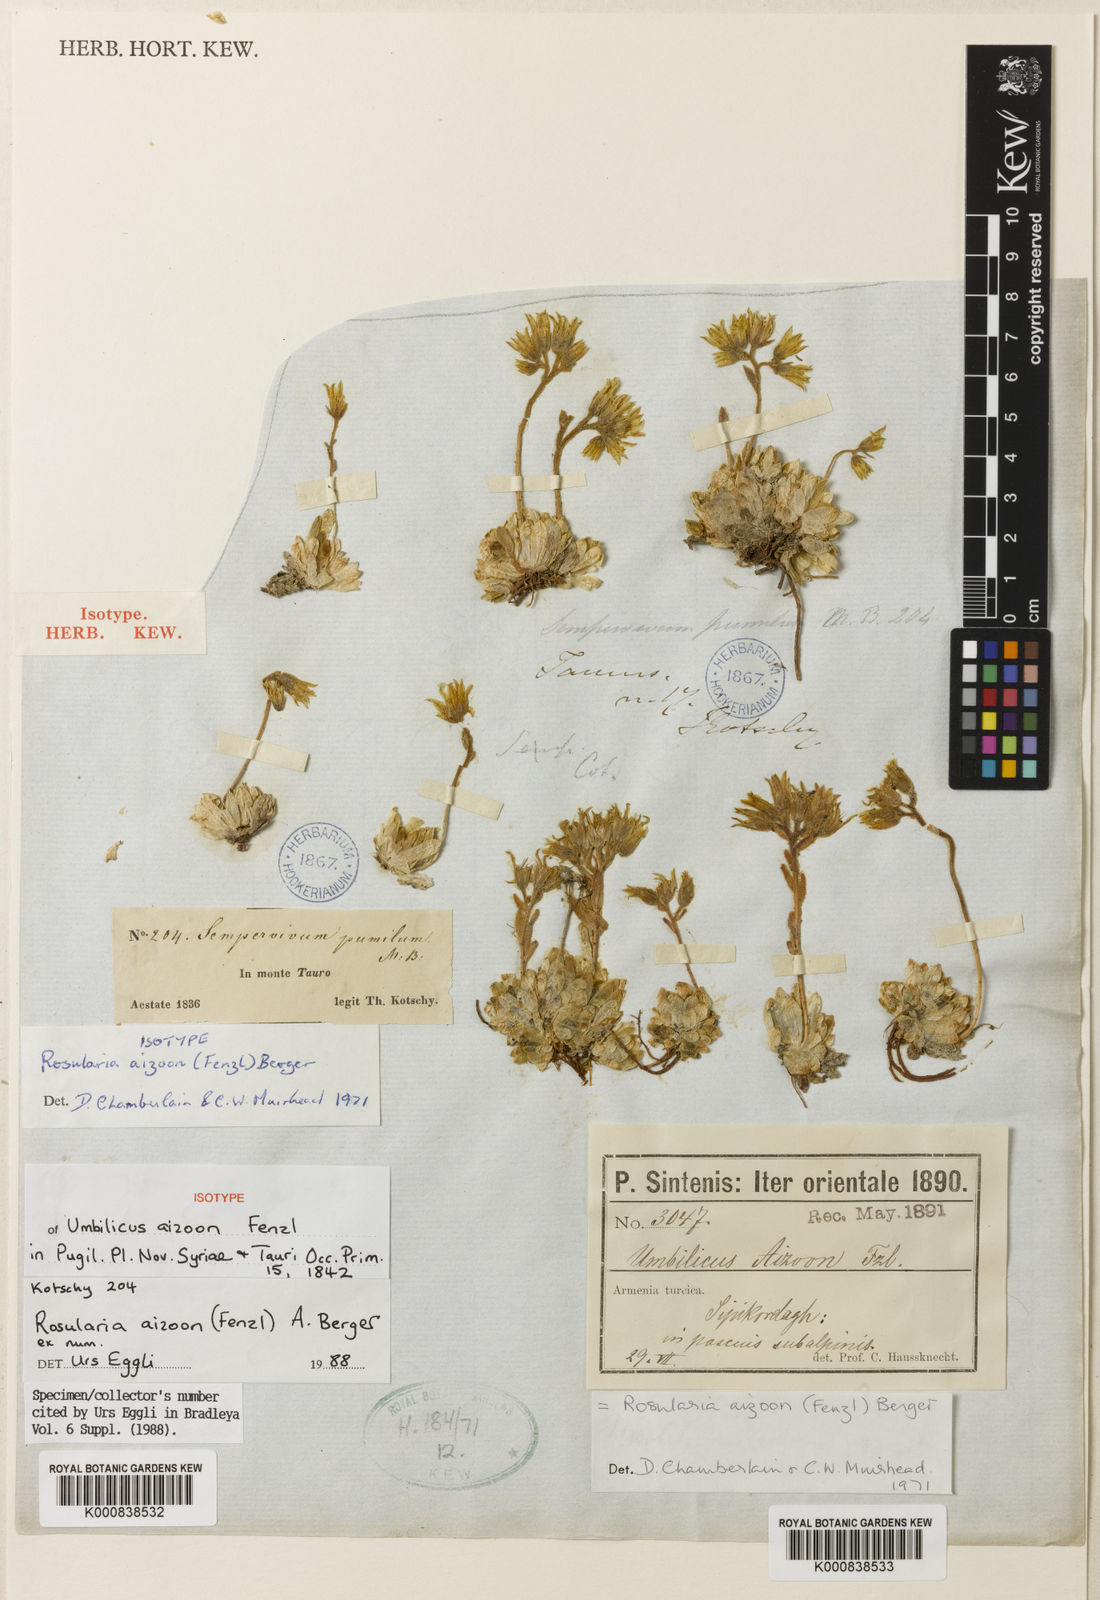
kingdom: Plantae
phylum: Tracheophyta
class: Magnoliopsida
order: Saxifragales
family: Crassulaceae
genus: Prometheum
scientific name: Prometheum aizoon
